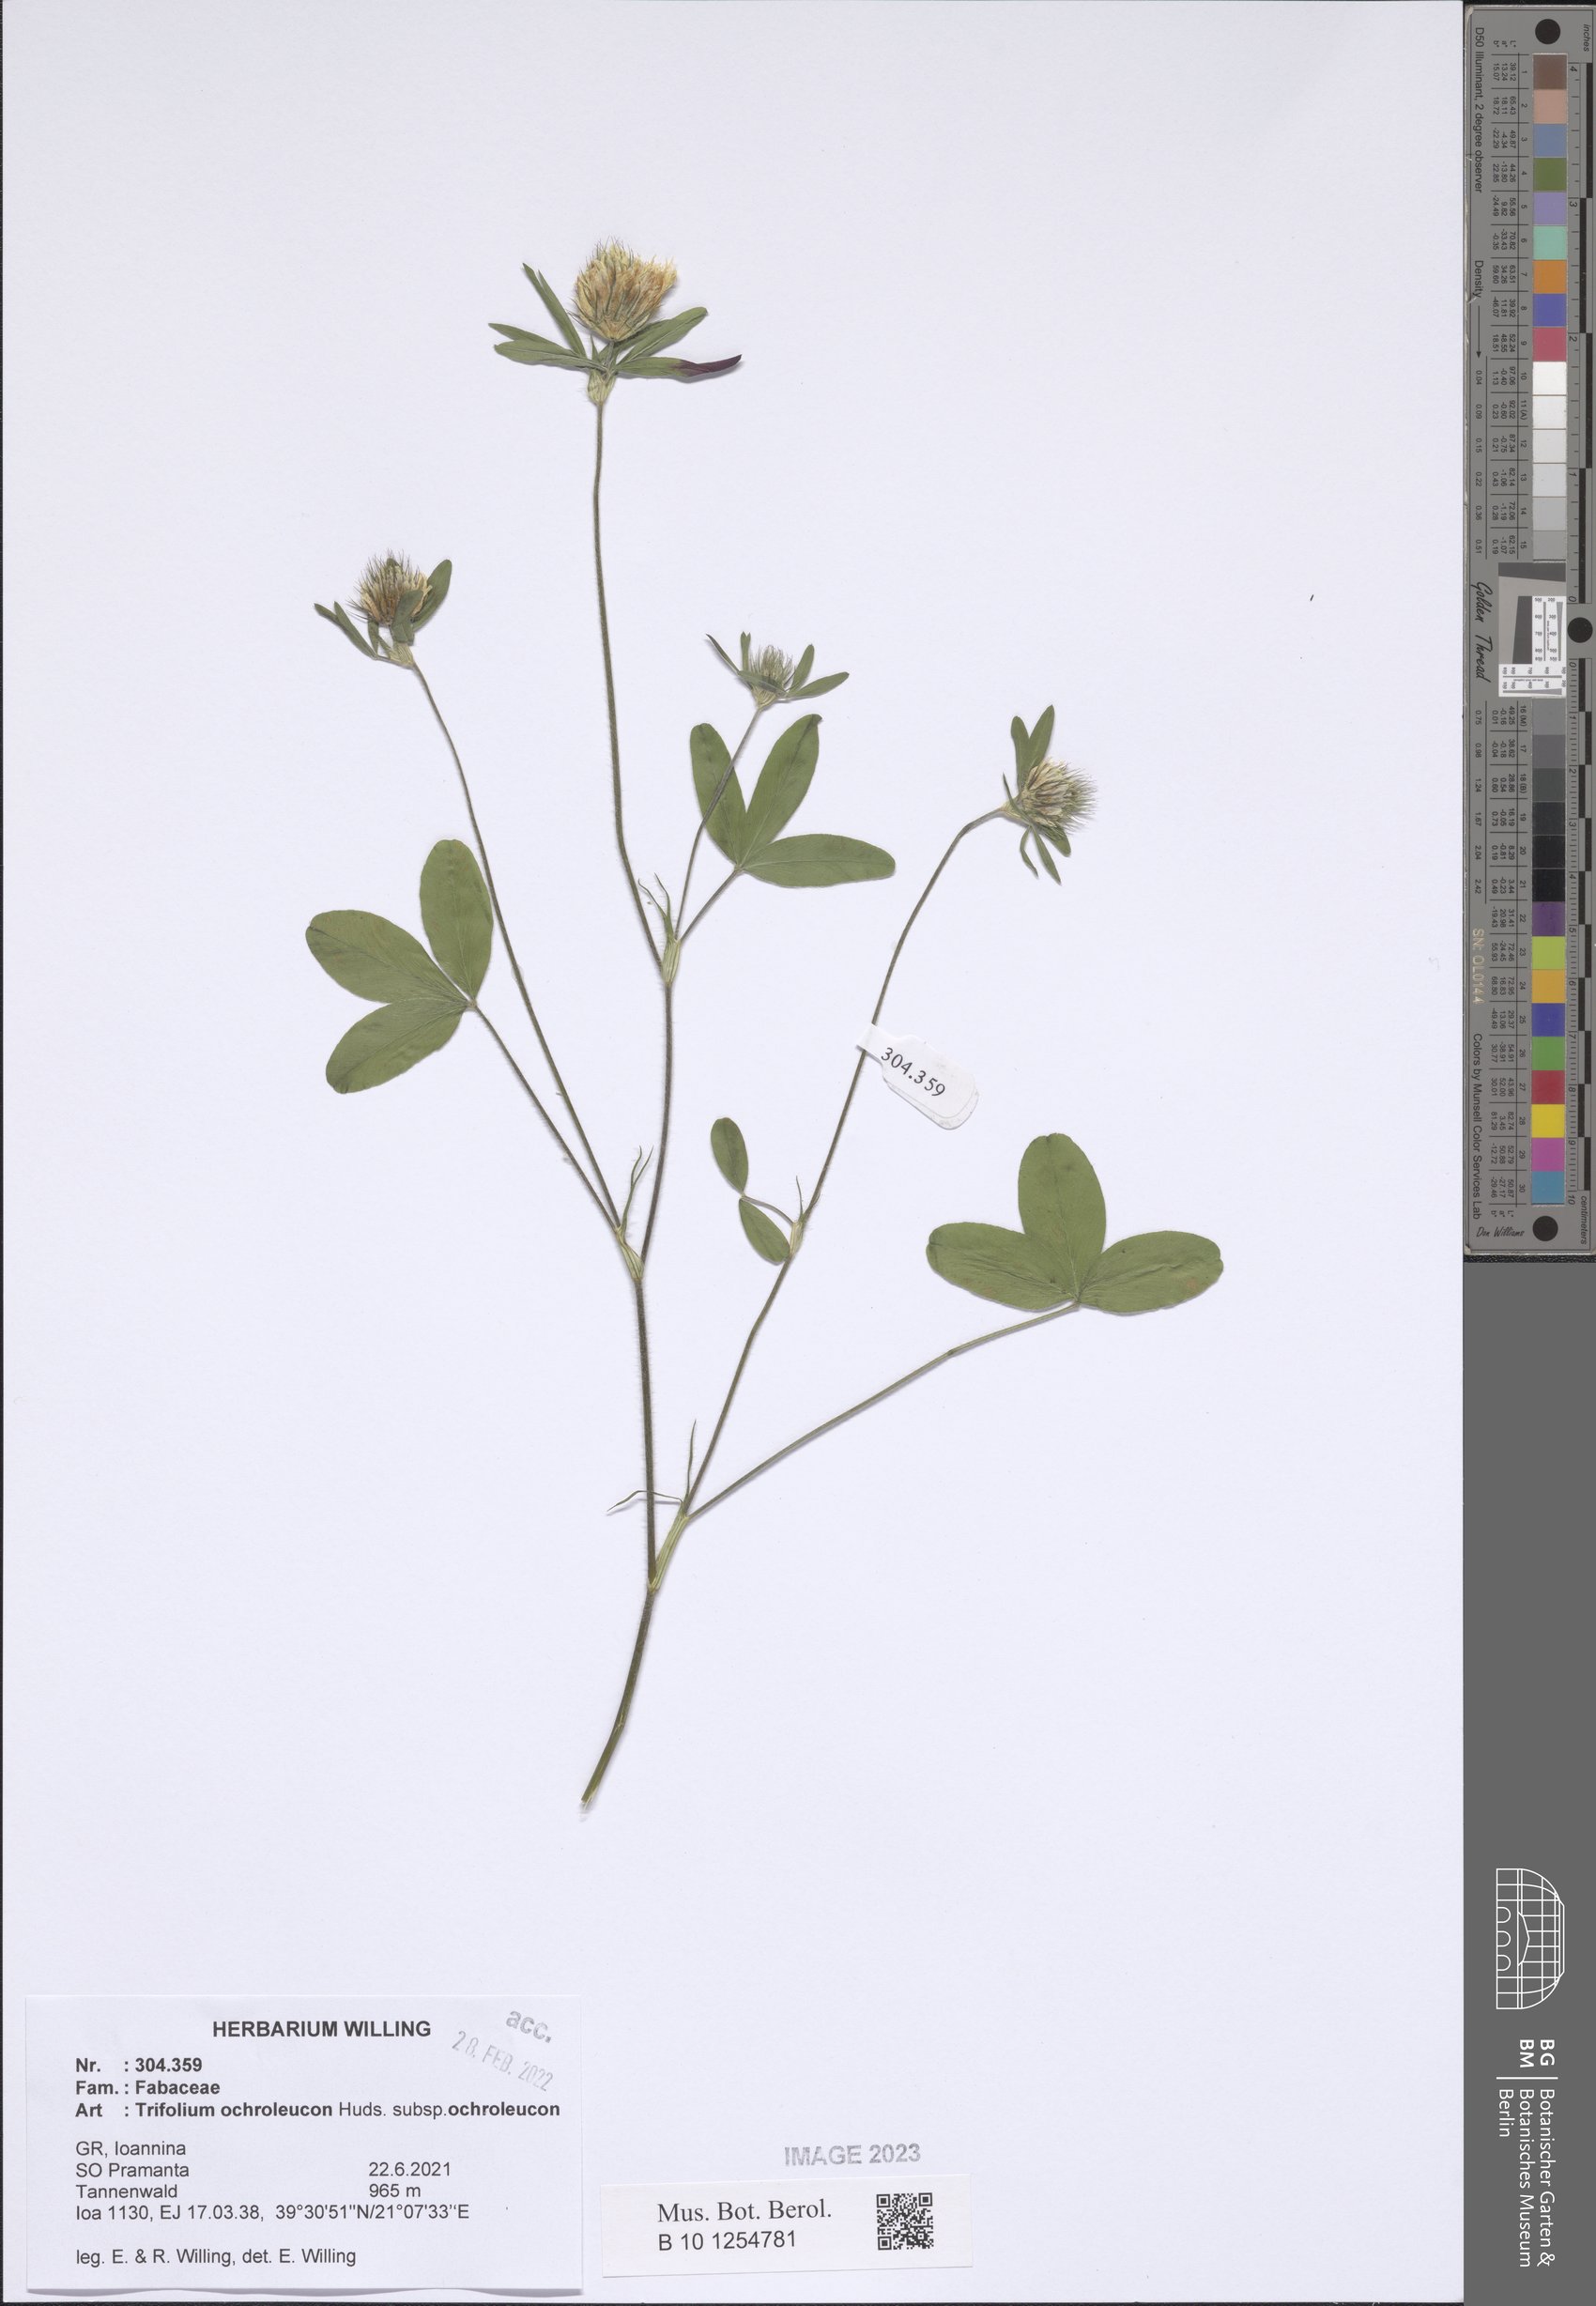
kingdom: Plantae
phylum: Tracheophyta
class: Magnoliopsida
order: Fabales
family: Fabaceae
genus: Trifolium
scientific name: Trifolium ochroleucon
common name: Sulphur clover
